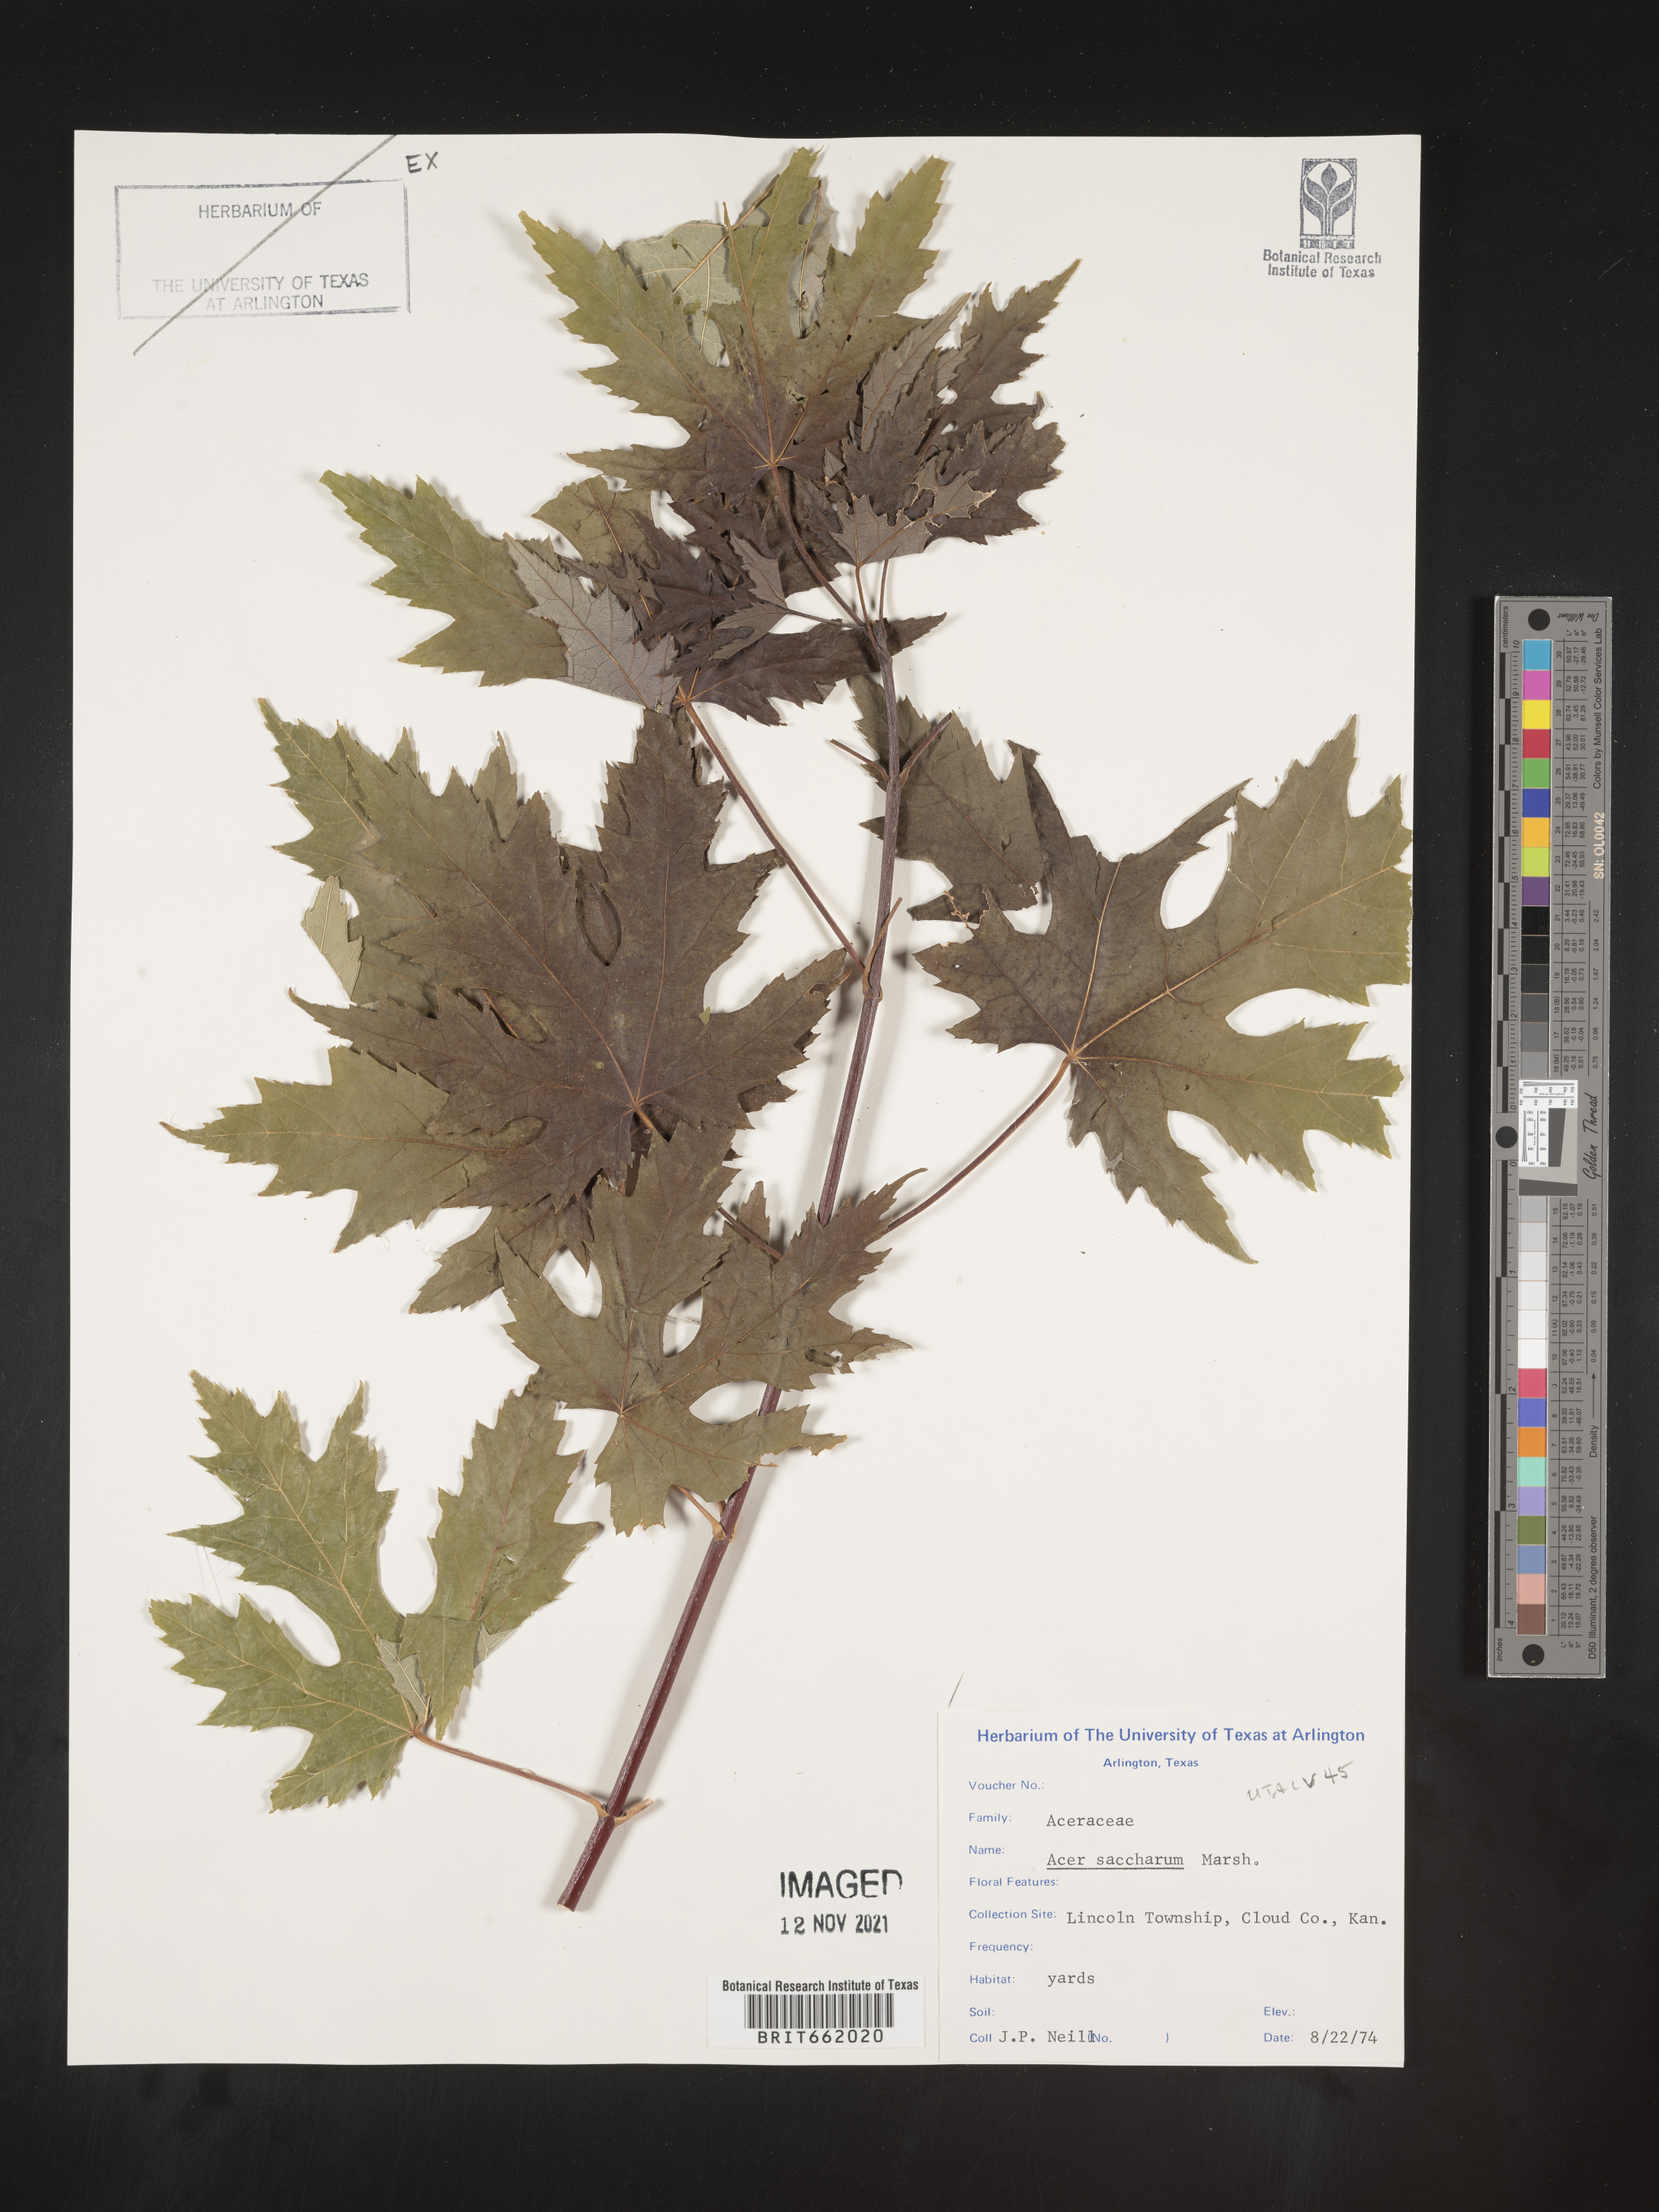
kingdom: Plantae
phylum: Tracheophyta
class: Magnoliopsida
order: Sapindales
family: Sapindaceae
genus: Acer
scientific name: Acer saccharum
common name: Sugar maple
